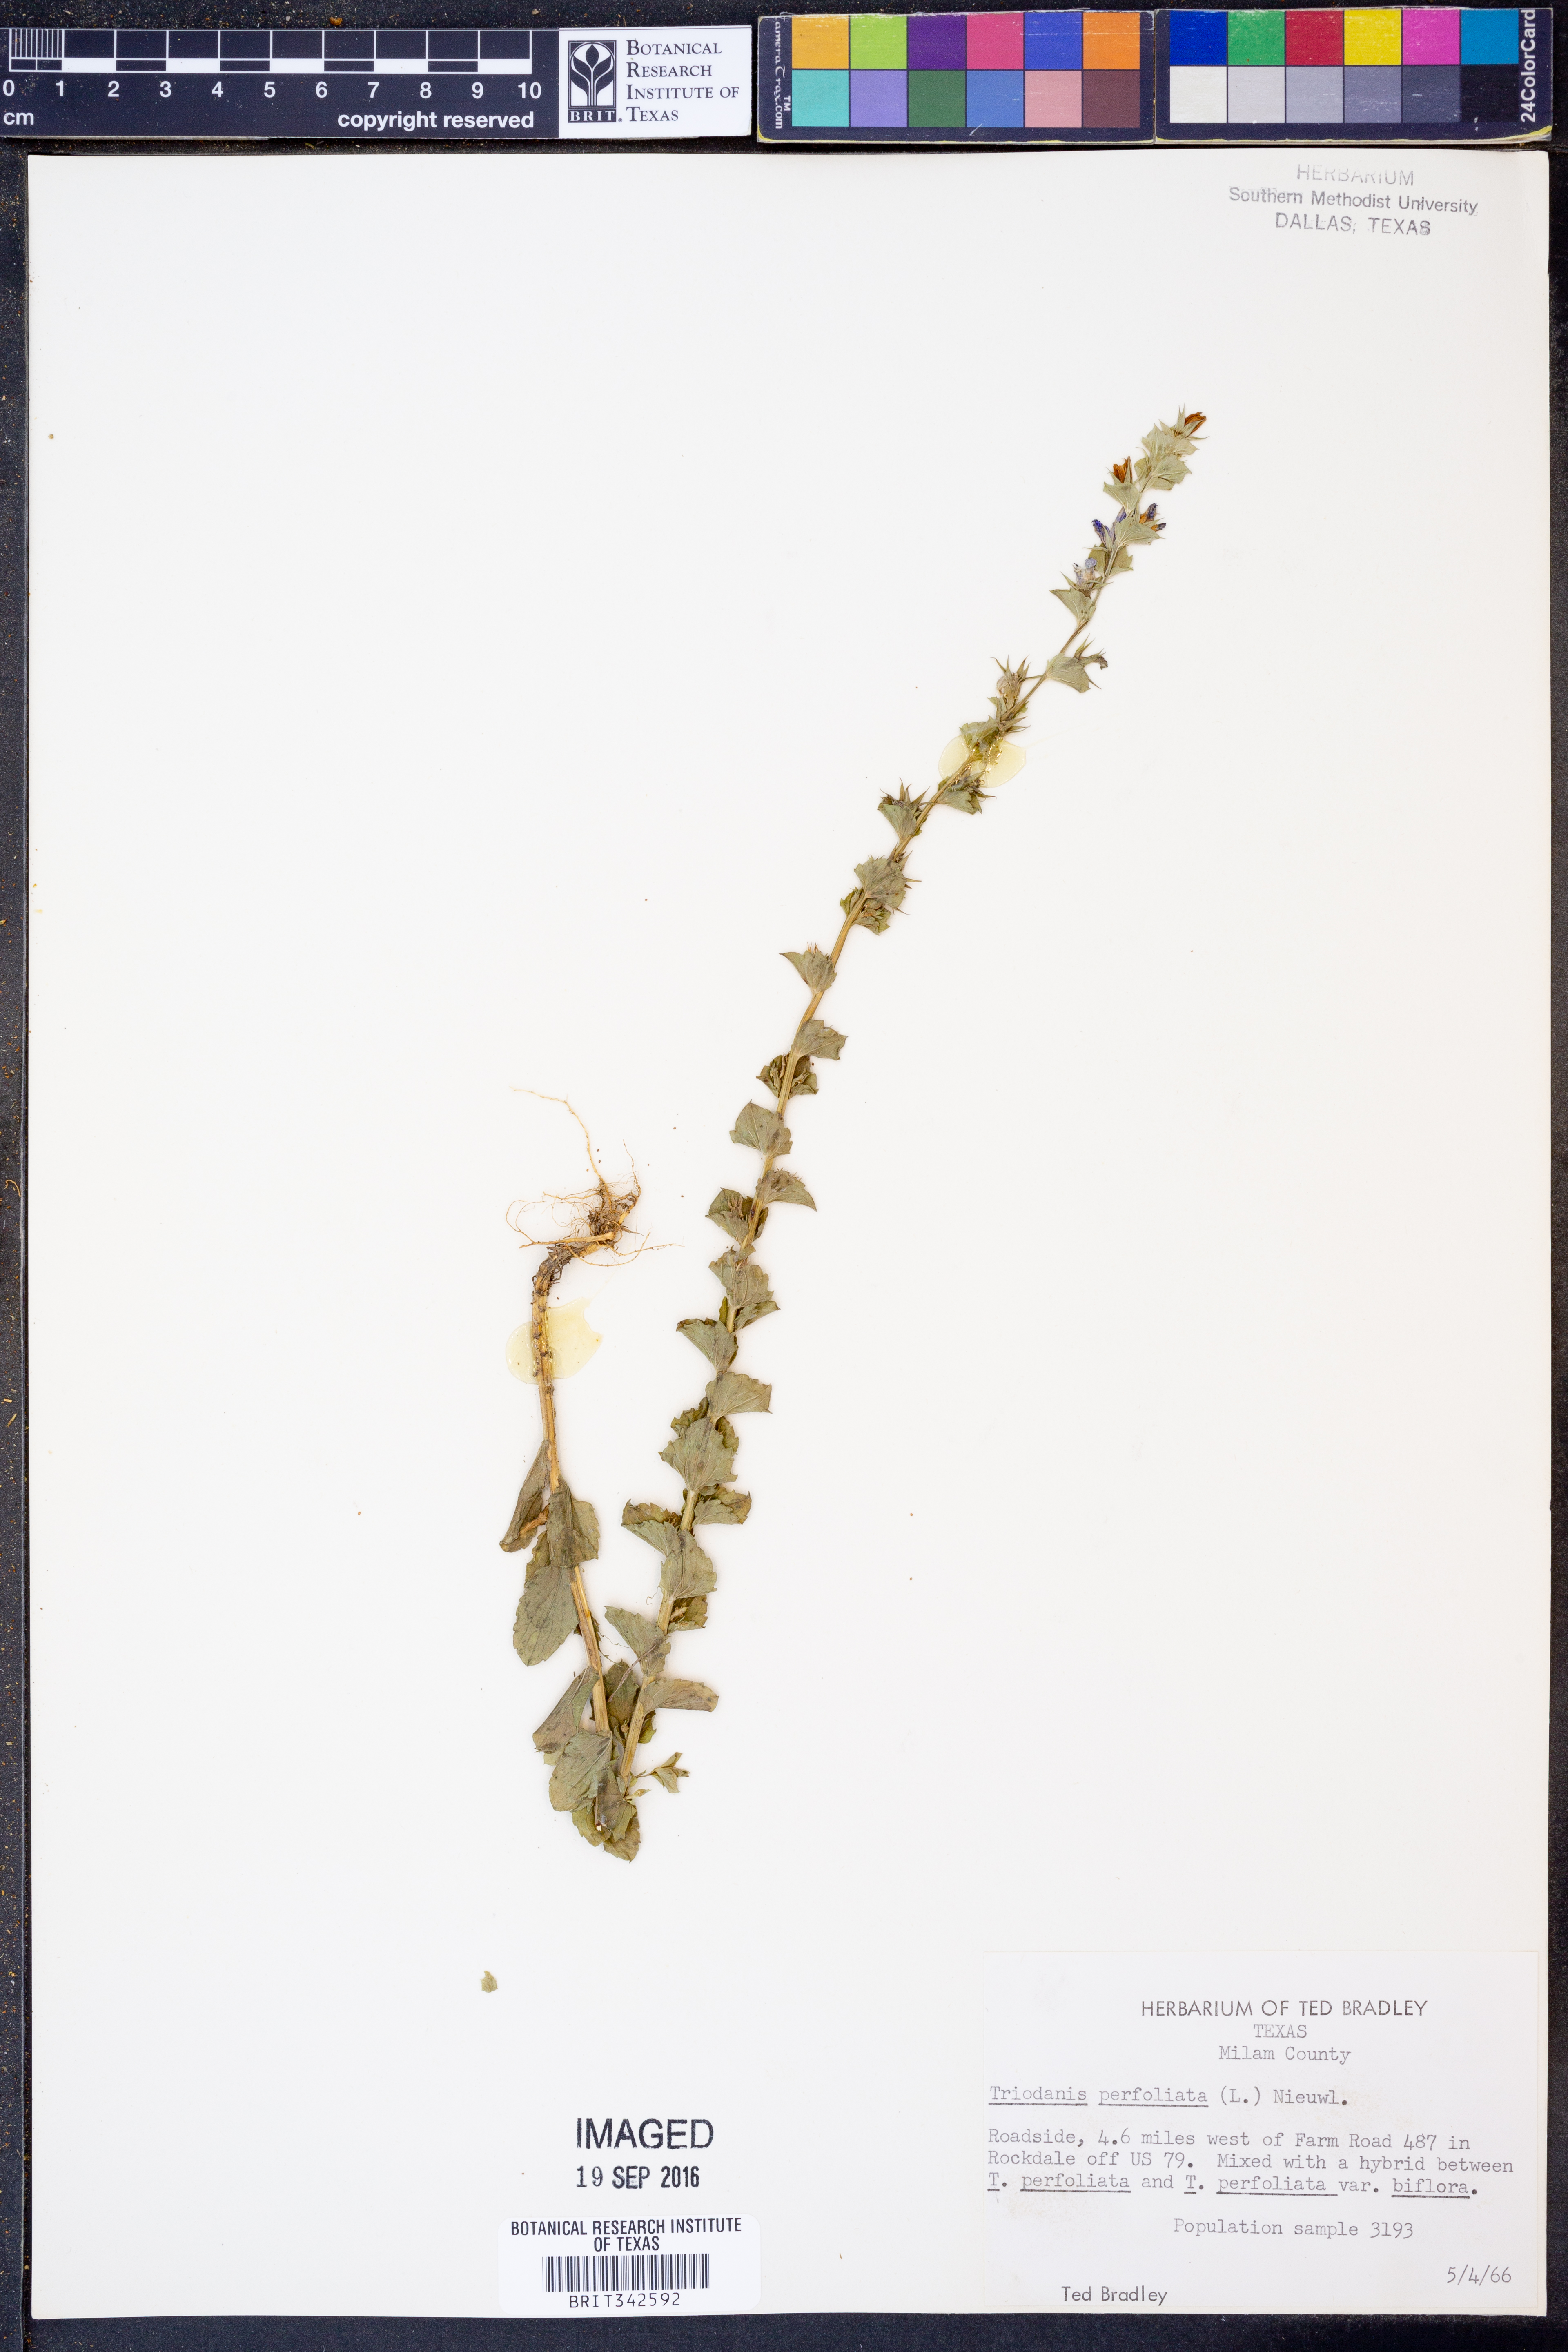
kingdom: Plantae
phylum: Tracheophyta
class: Magnoliopsida
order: Asterales
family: Campanulaceae
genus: Triodanis
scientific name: Triodanis perfoliata
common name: Clasping venus' looking-glass
